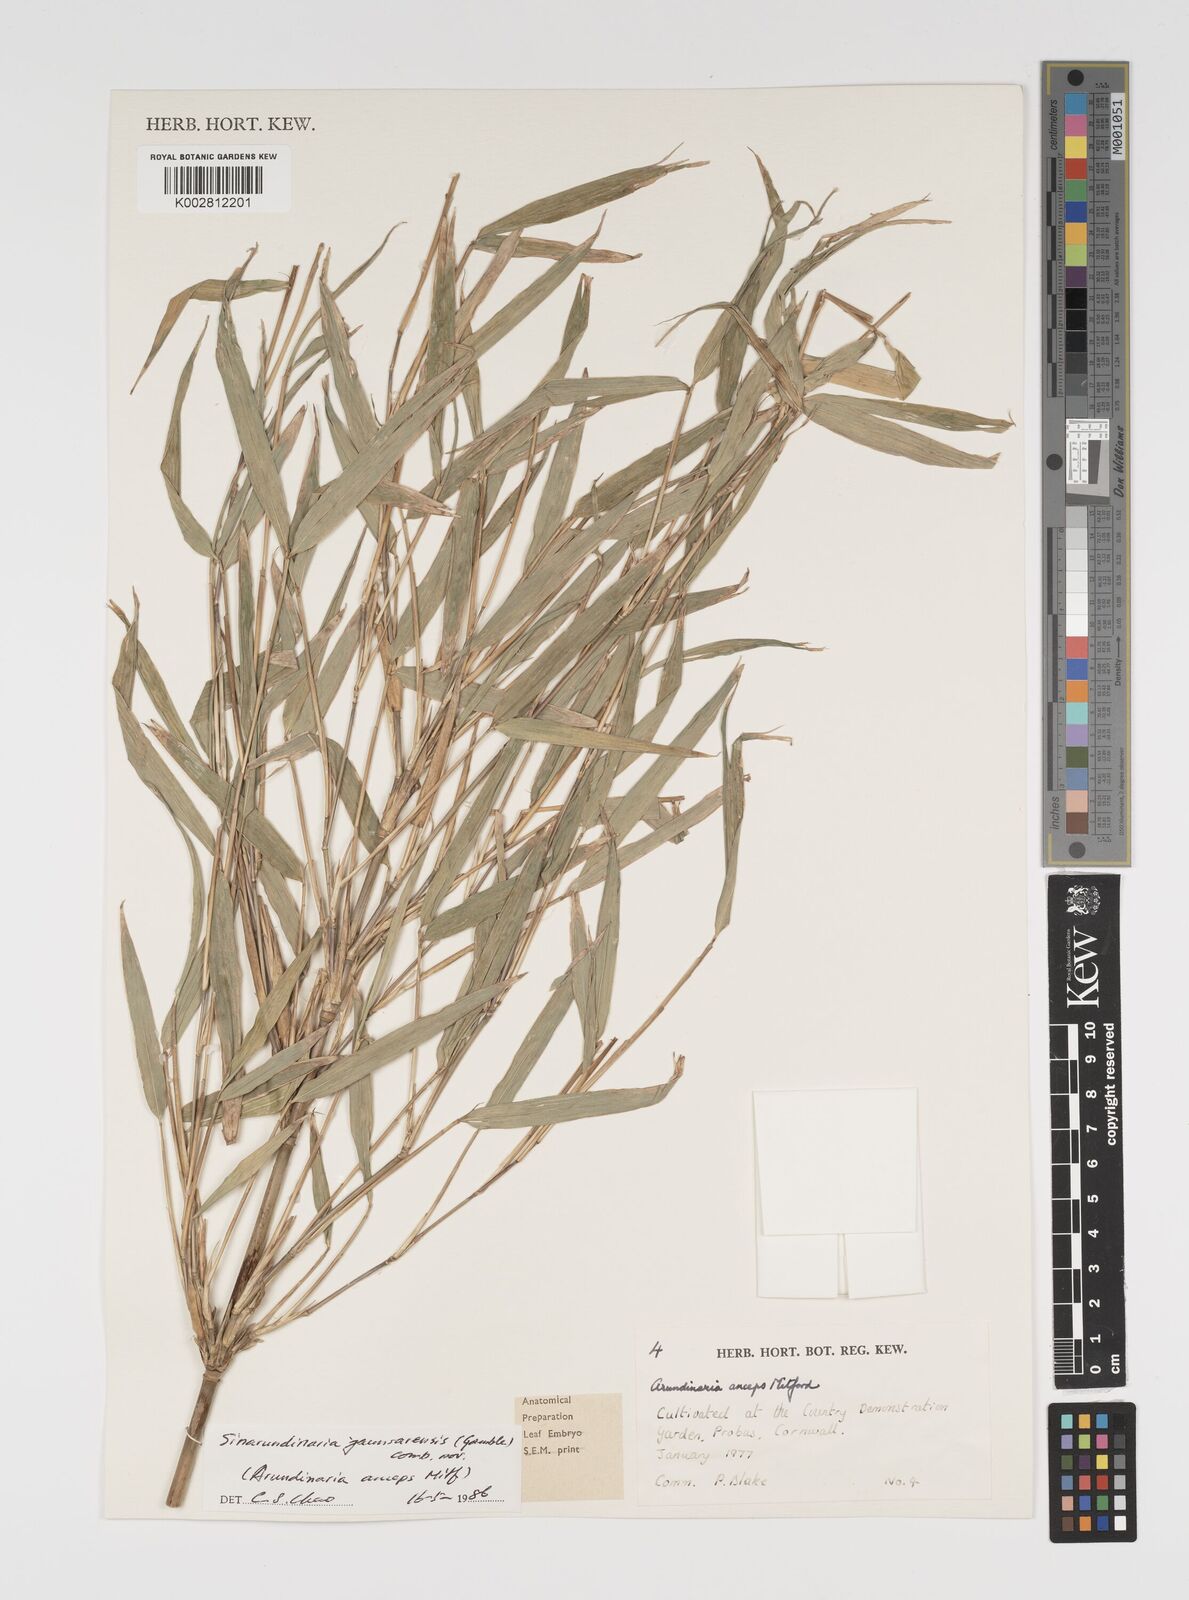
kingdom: Plantae
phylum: Tracheophyta
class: Liliopsida
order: Poales
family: Poaceae
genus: Yushania
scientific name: Yushania anceps
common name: Indian fountain-bamboo
